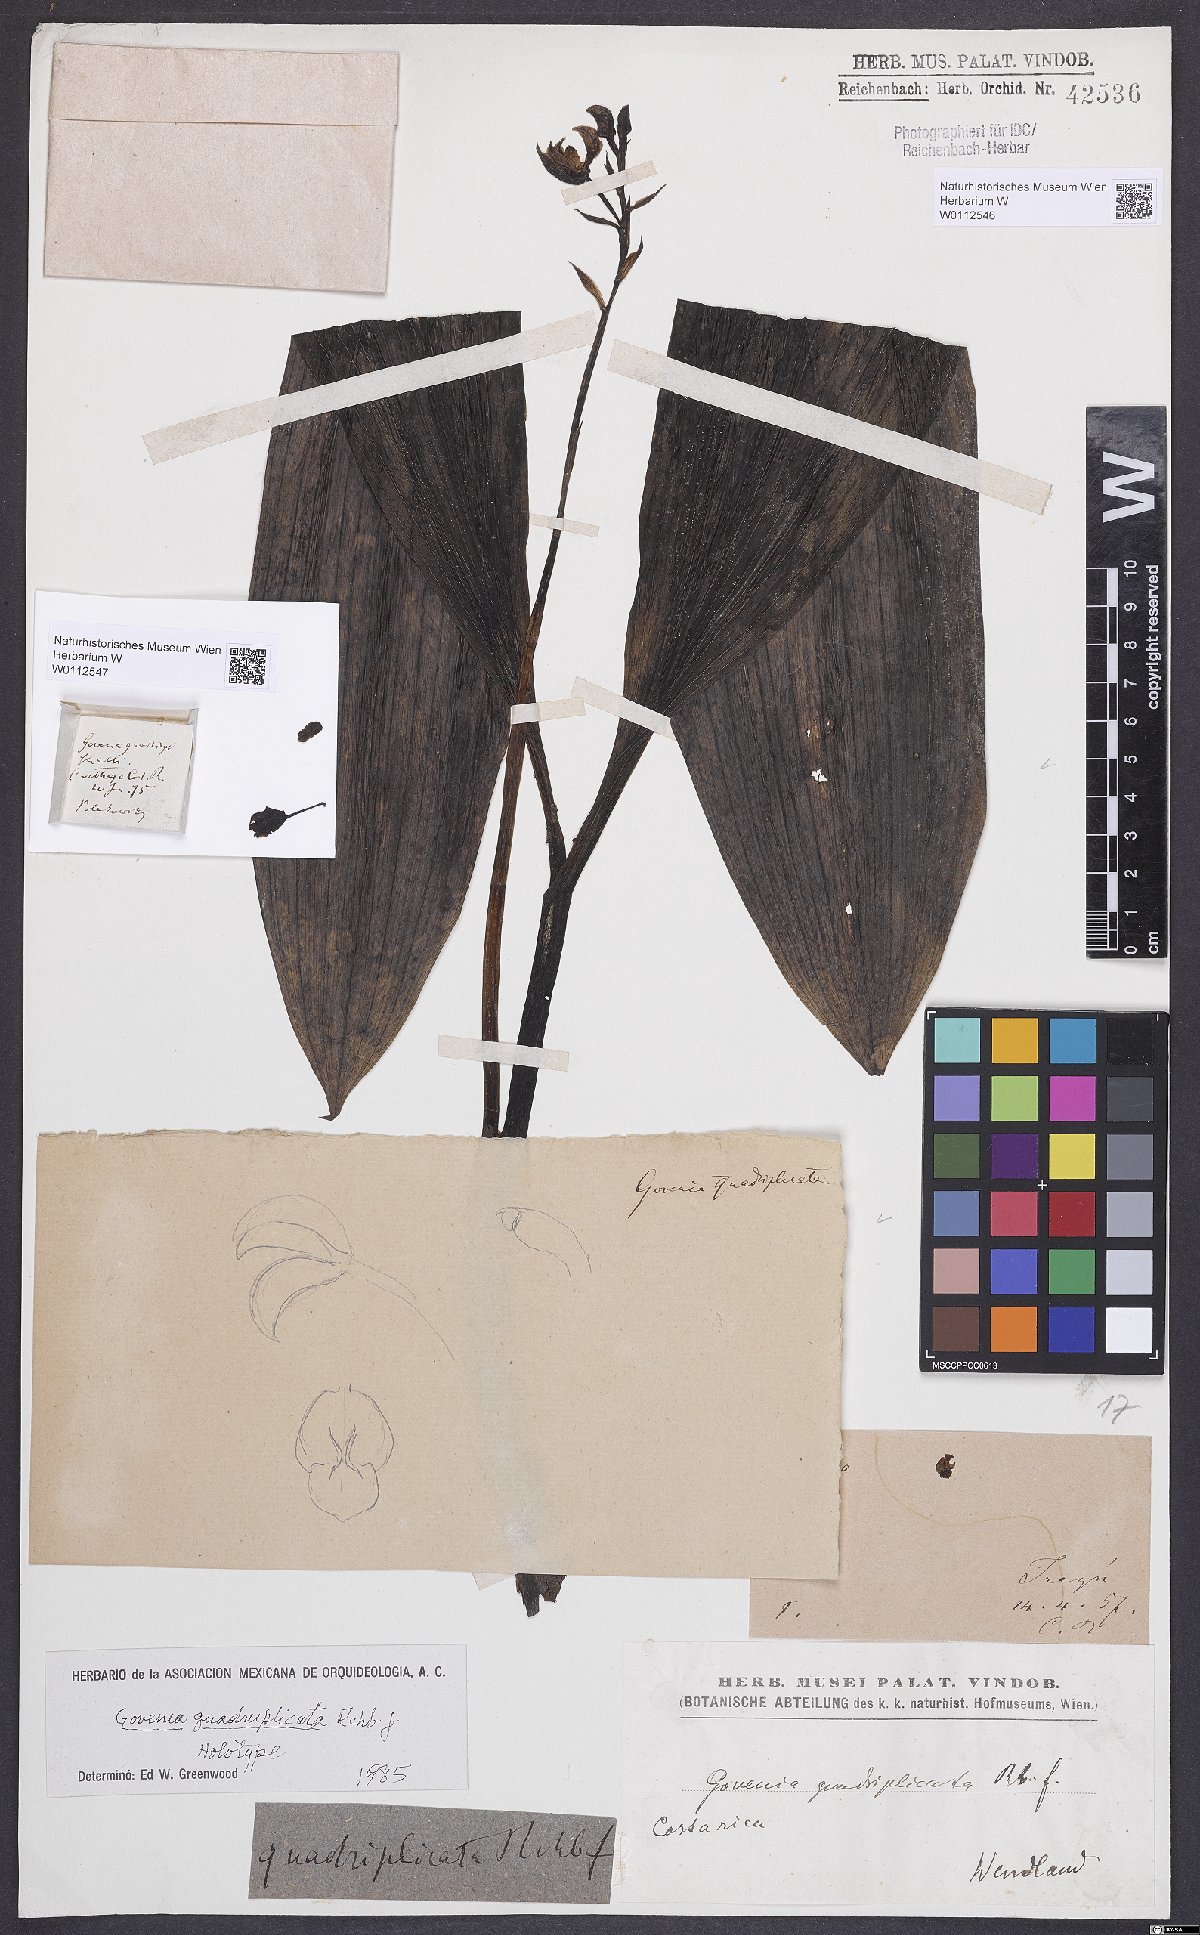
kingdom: Plantae
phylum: Tracheophyta
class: Liliopsida
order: Asparagales
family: Orchidaceae
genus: Govenia
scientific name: Govenia quadriplicata
